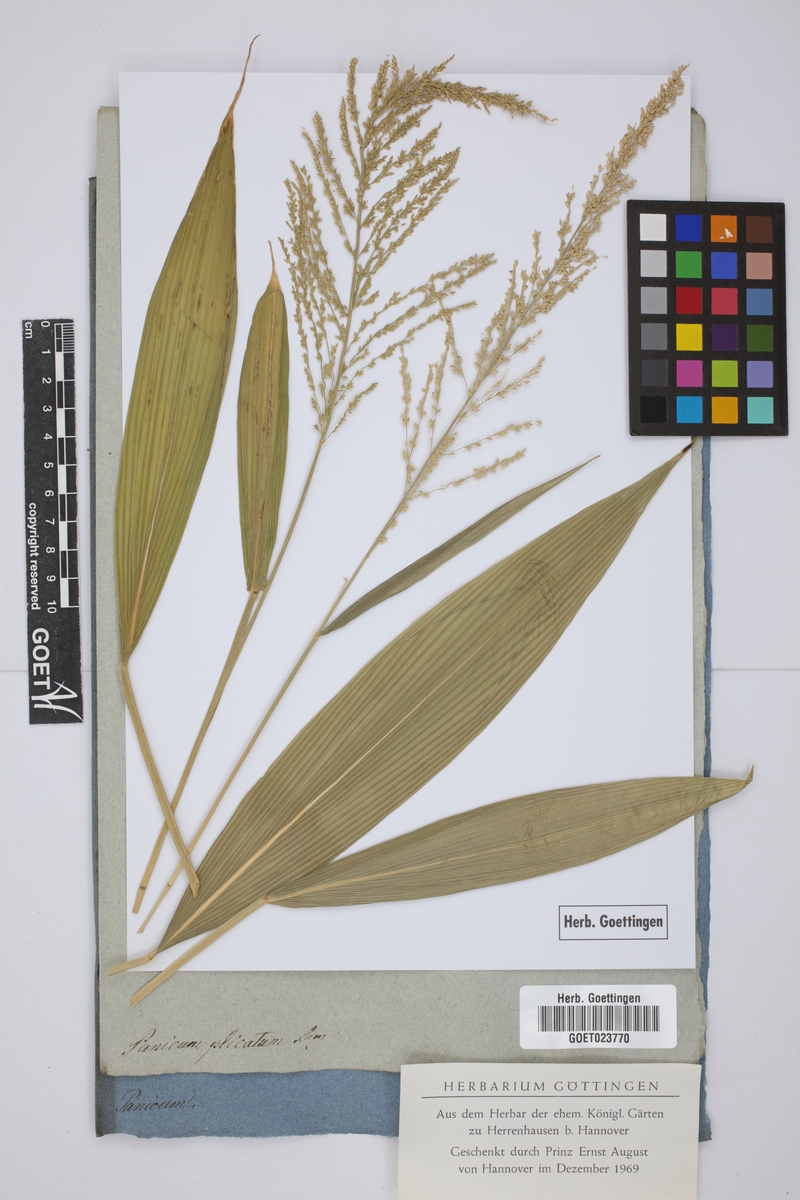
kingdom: Plantae
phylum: Tracheophyta
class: Liliopsida
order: Poales
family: Poaceae
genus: Setaria
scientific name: Setaria plicata
